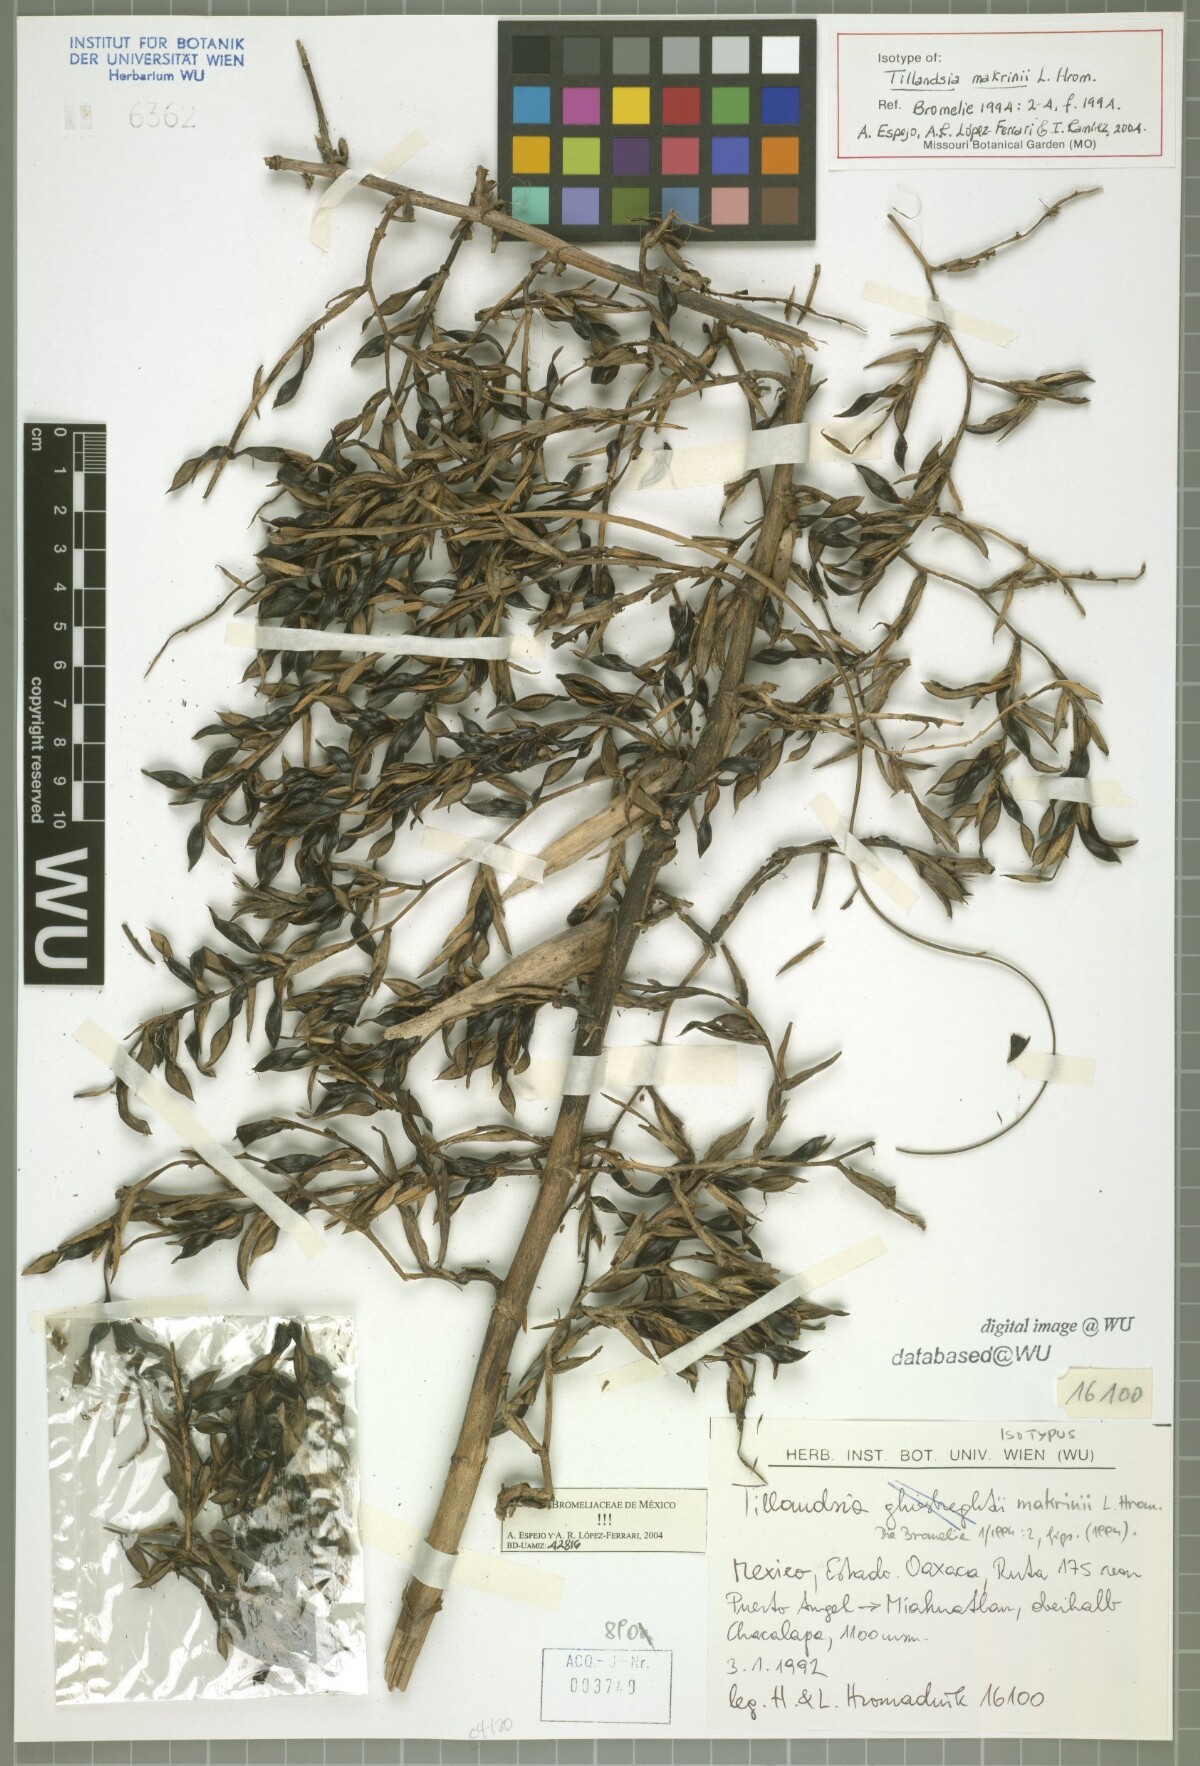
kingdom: Plantae
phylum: Tracheophyta
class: Liliopsida
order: Poales
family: Bromeliaceae
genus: Tillandsia
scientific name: Tillandsia makrinii
